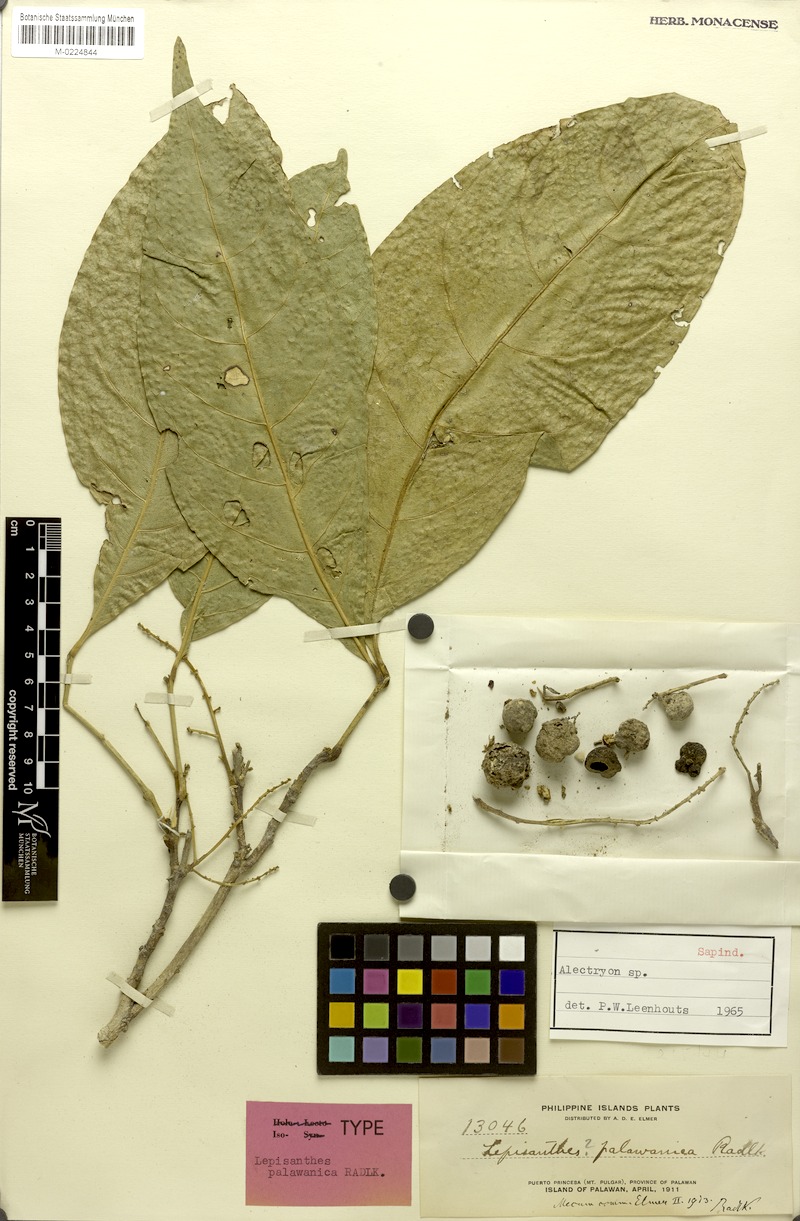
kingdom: Plantae
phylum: Tracheophyta
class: Magnoliopsida
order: Sapindales
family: Sapindaceae
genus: Alectryon
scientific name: Alectryon
